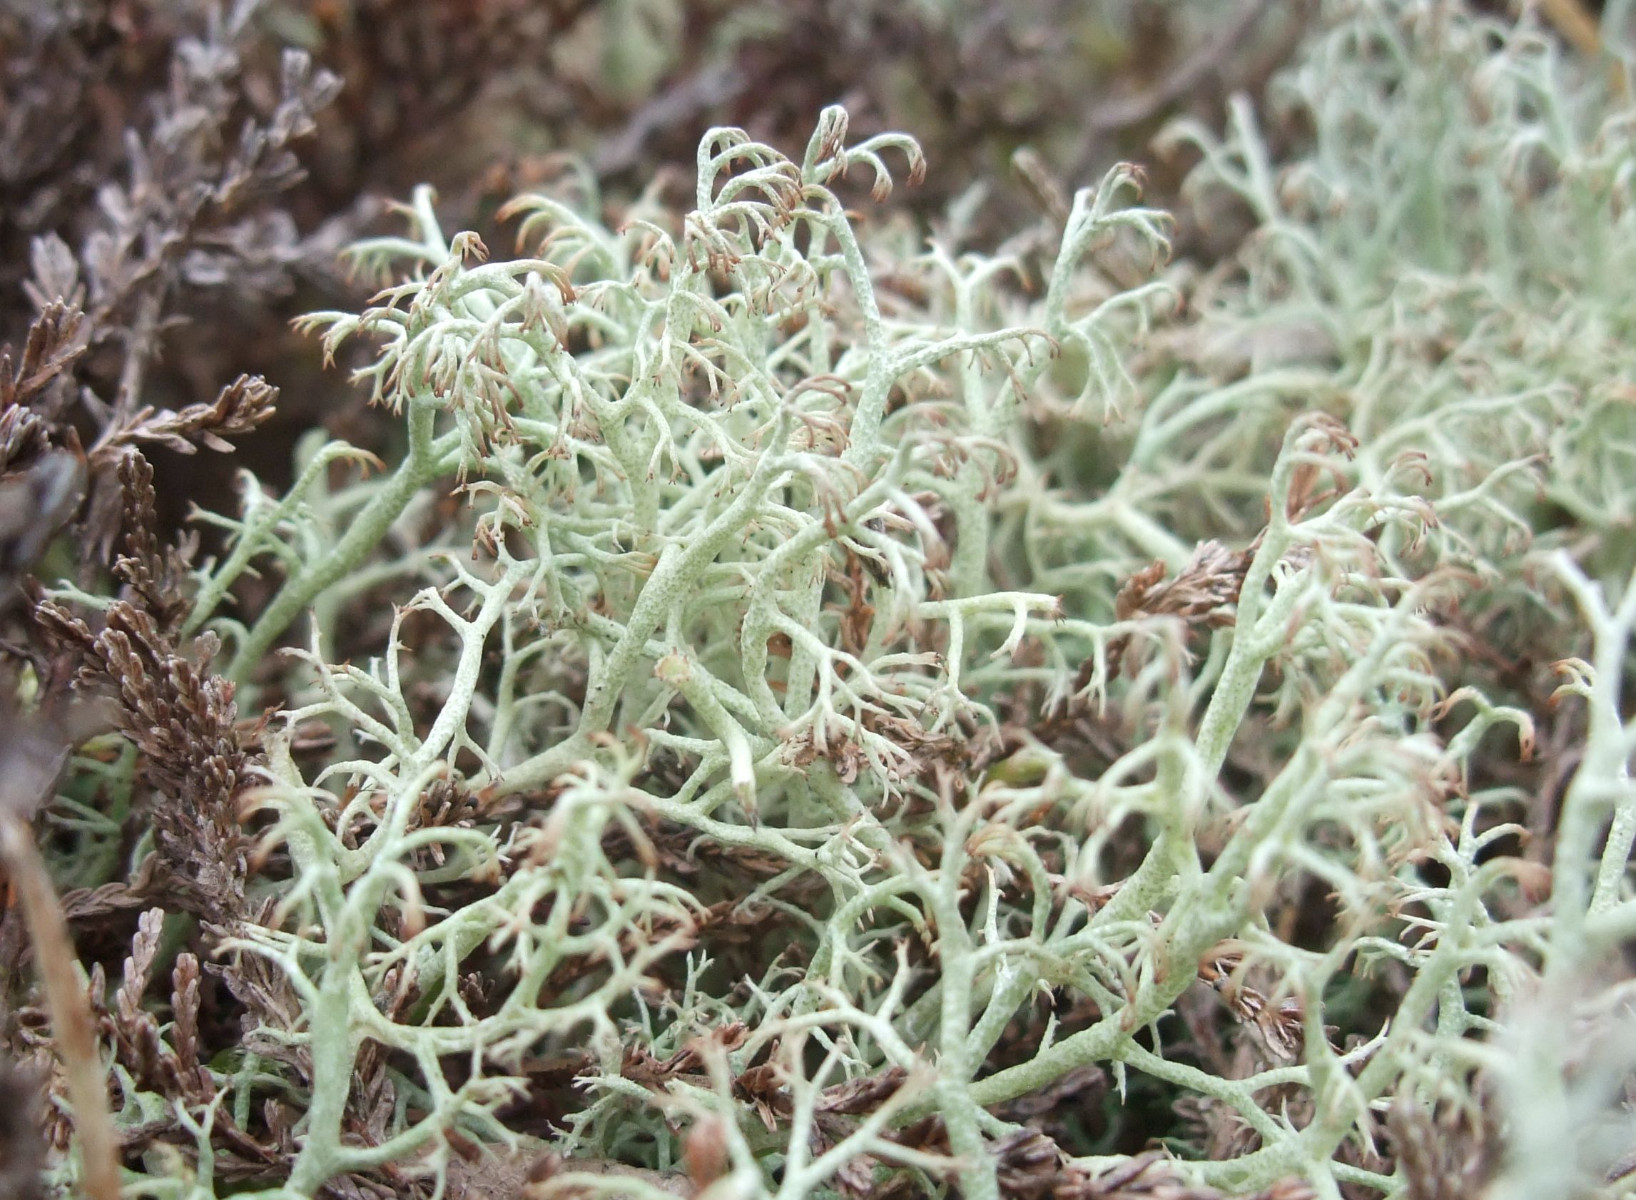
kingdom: Fungi
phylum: Ascomycota
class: Lecanoromycetes
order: Lecanorales
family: Cladoniaceae
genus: Cladonia
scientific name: Cladonia ciliata
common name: spinkel rensdyrlav
